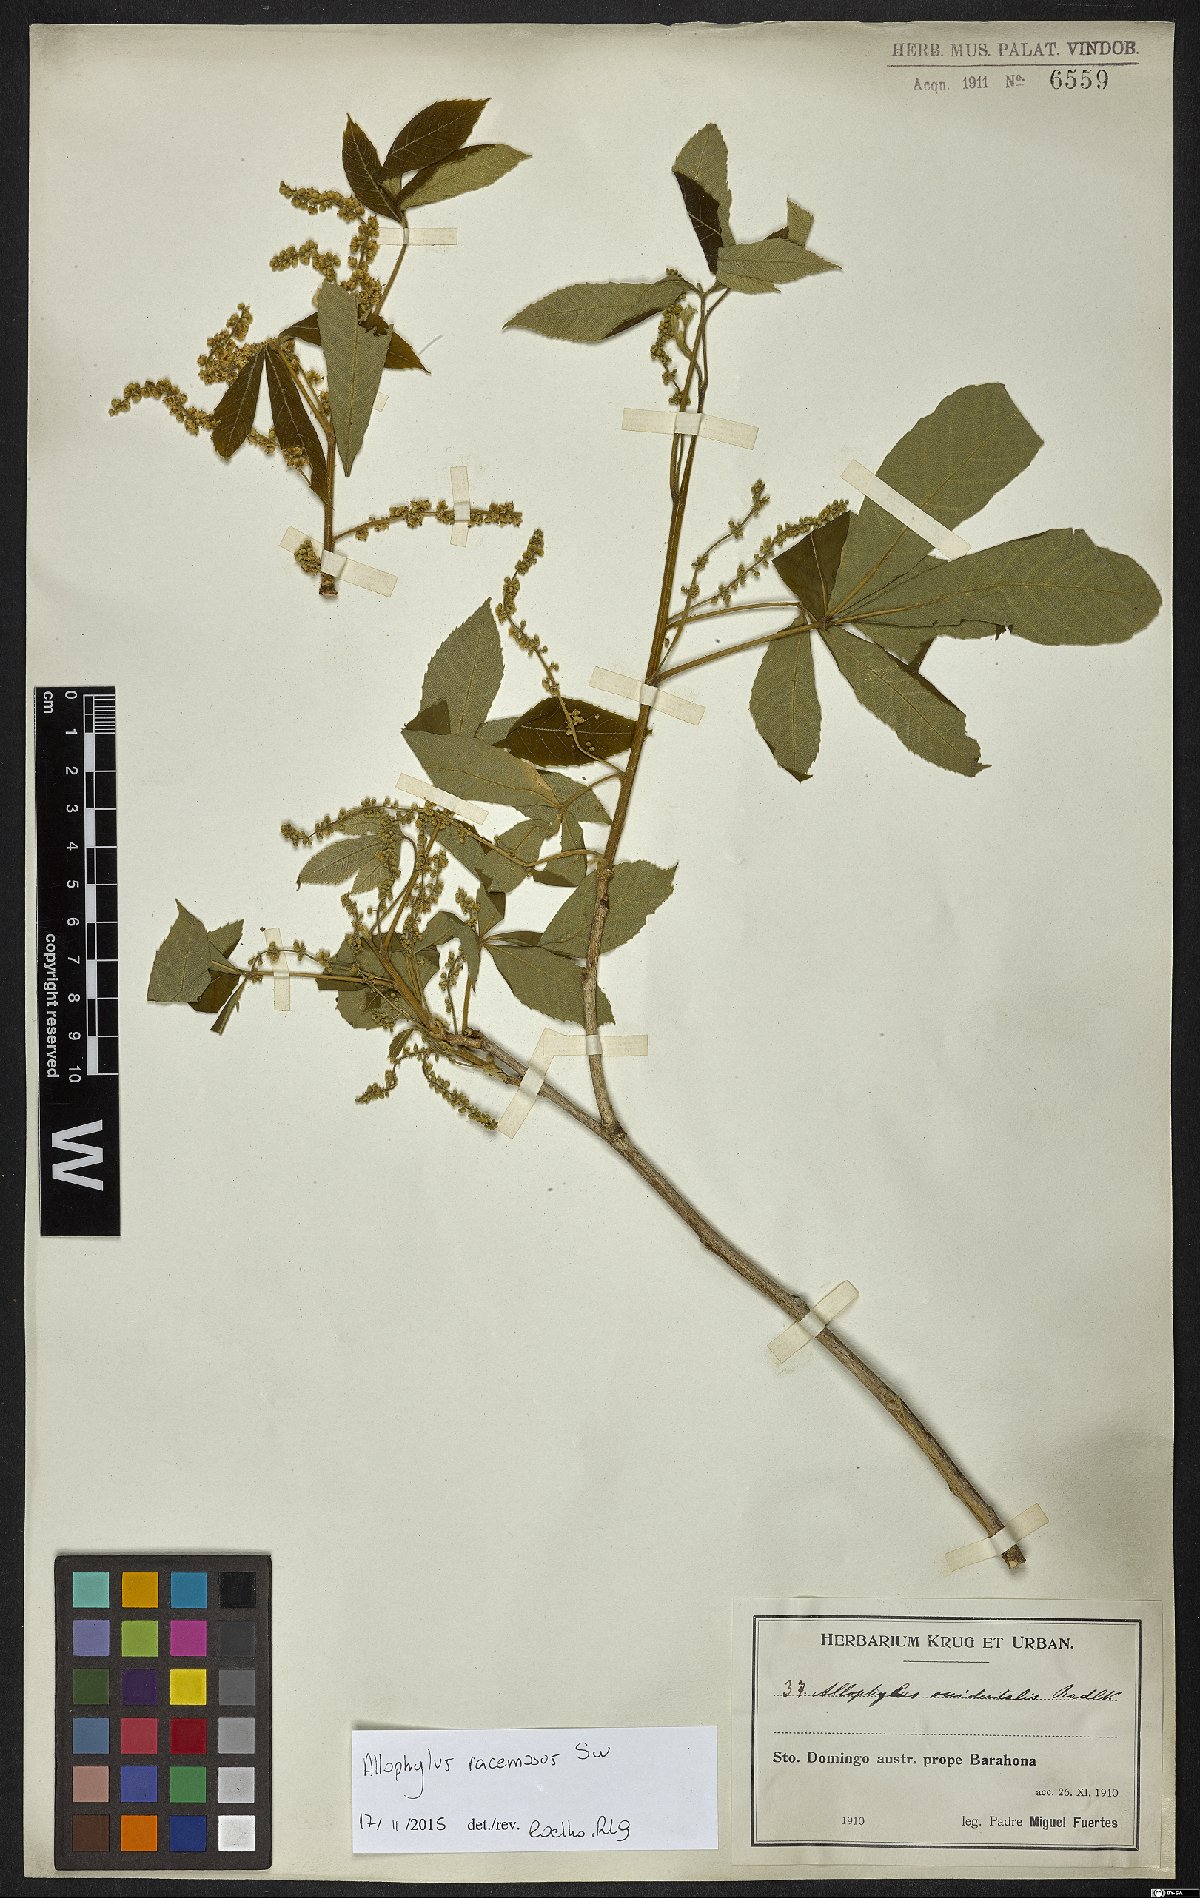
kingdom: Plantae
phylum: Tracheophyta
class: Magnoliopsida
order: Sapindales
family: Sapindaceae
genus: Allophylus
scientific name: Allophylus racemosus
